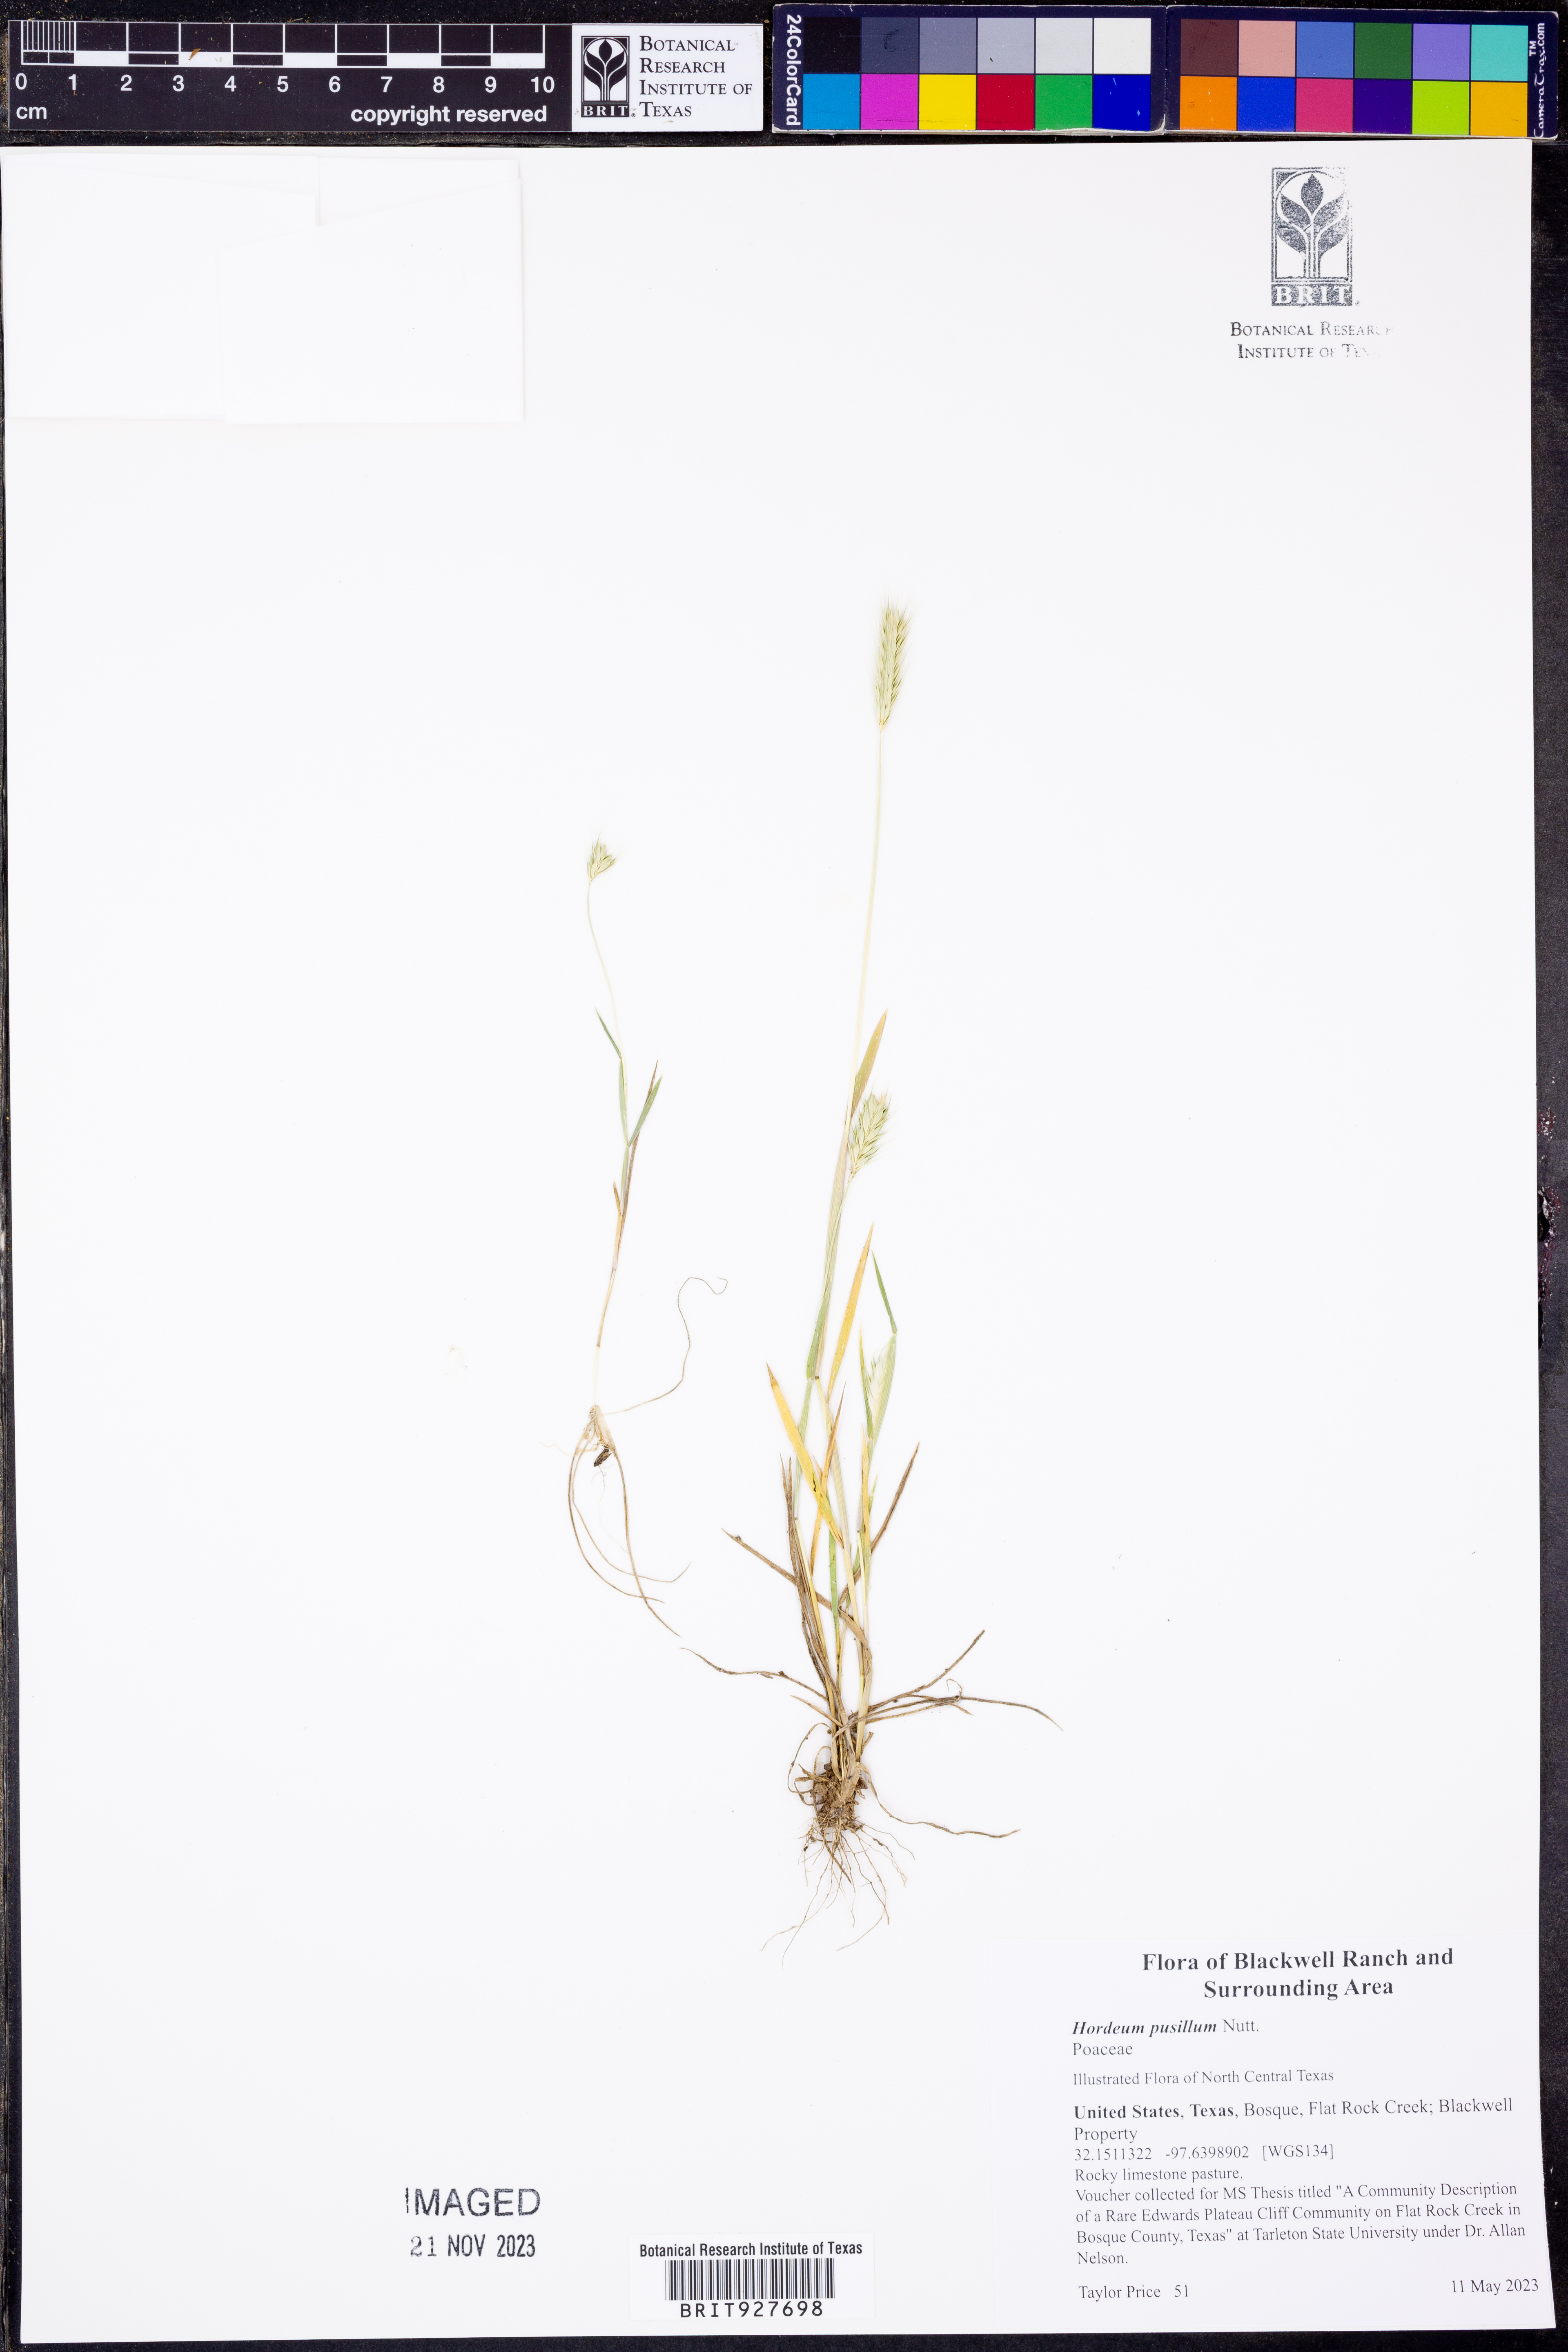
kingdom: Plantae
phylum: Tracheophyta
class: Liliopsida
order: Poales
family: Poaceae
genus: Hordeum
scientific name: Hordeum pusillum
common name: Little barley
